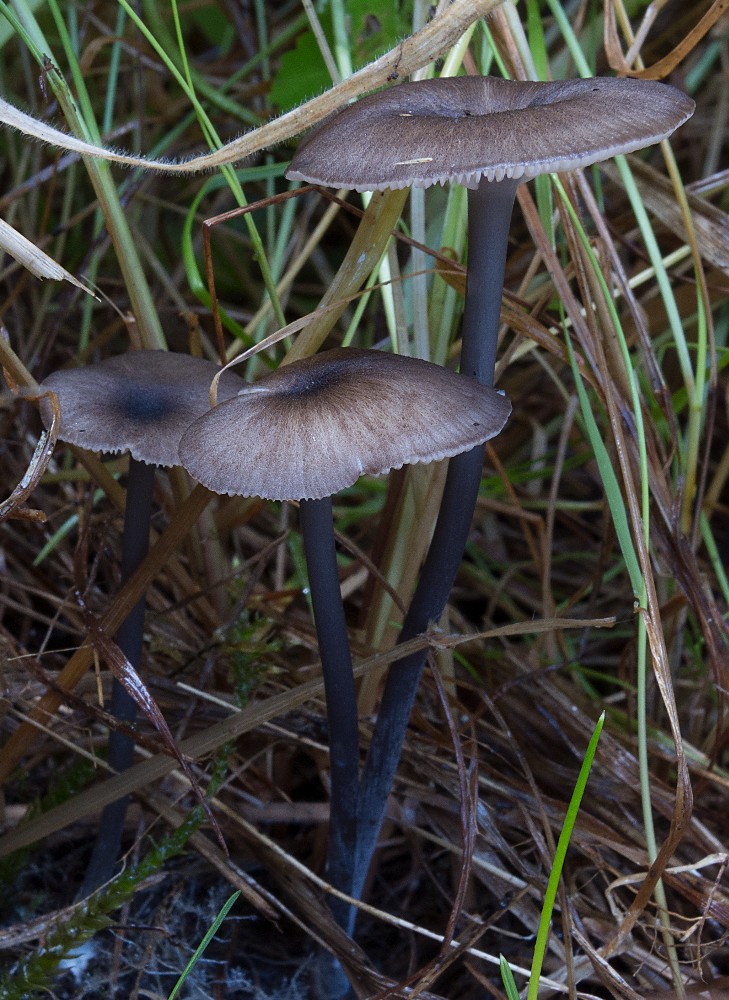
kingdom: Fungi
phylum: Basidiomycota
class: Agaricomycetes
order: Agaricales
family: Entolomataceae
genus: Entoloma
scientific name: Entoloma allospermum
